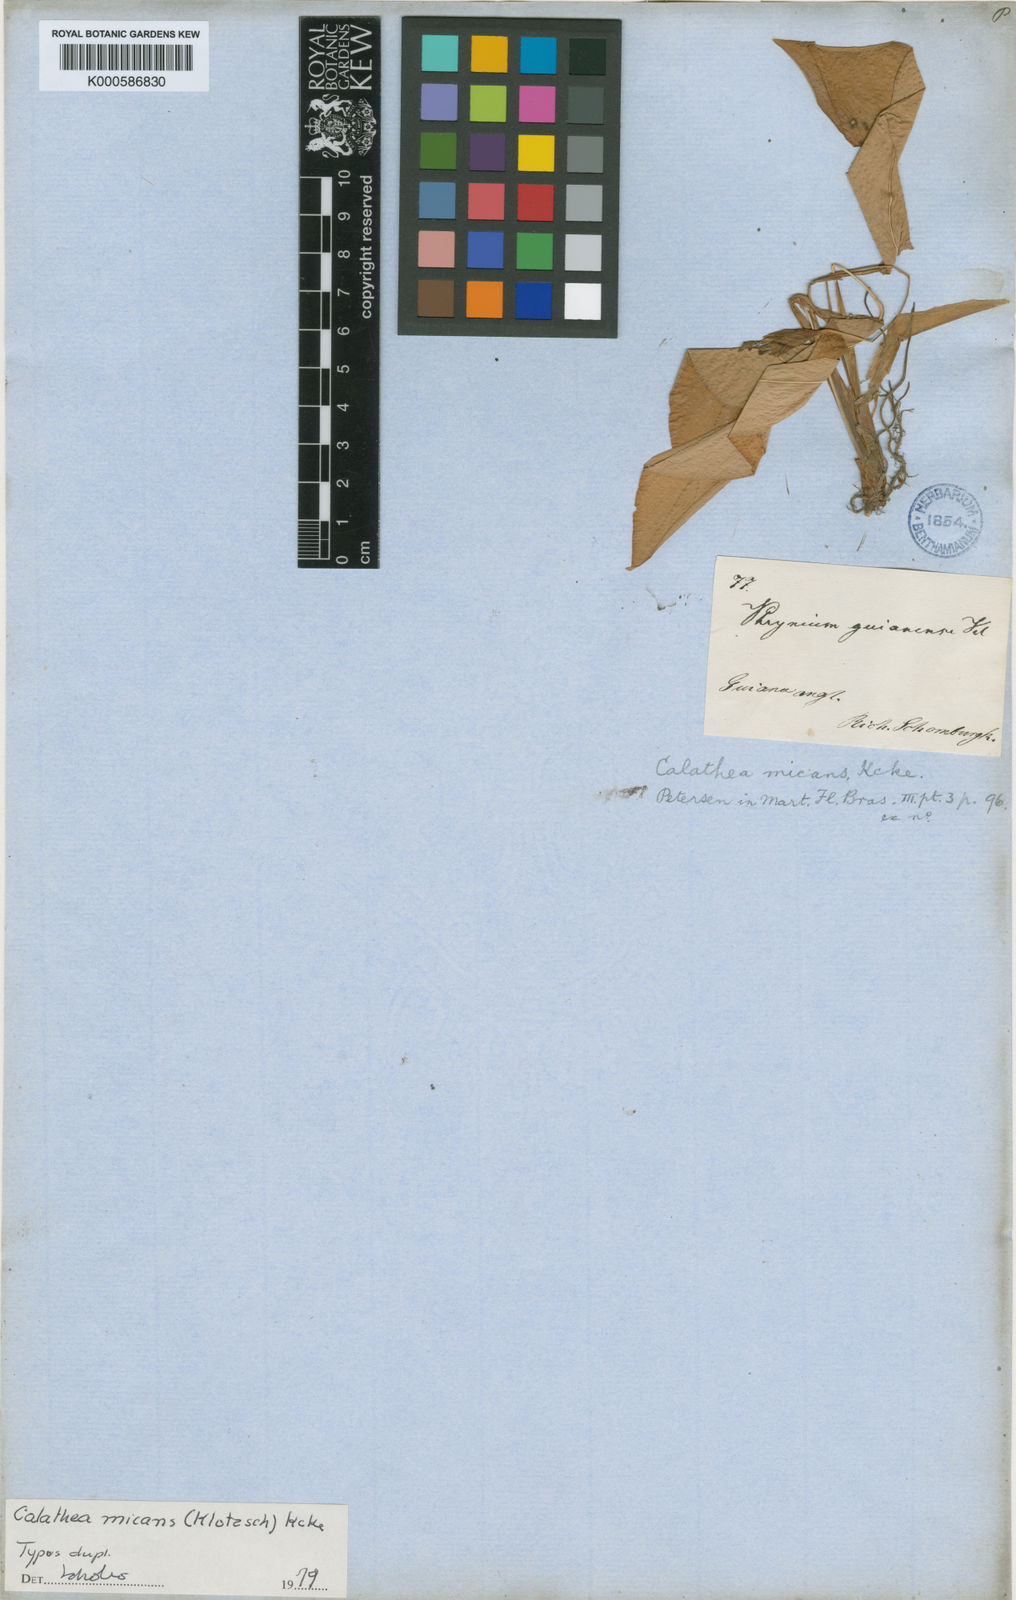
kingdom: Plantae
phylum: Tracheophyta
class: Liliopsida
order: Zingiberales
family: Marantaceae
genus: Calathea
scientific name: Calathea
